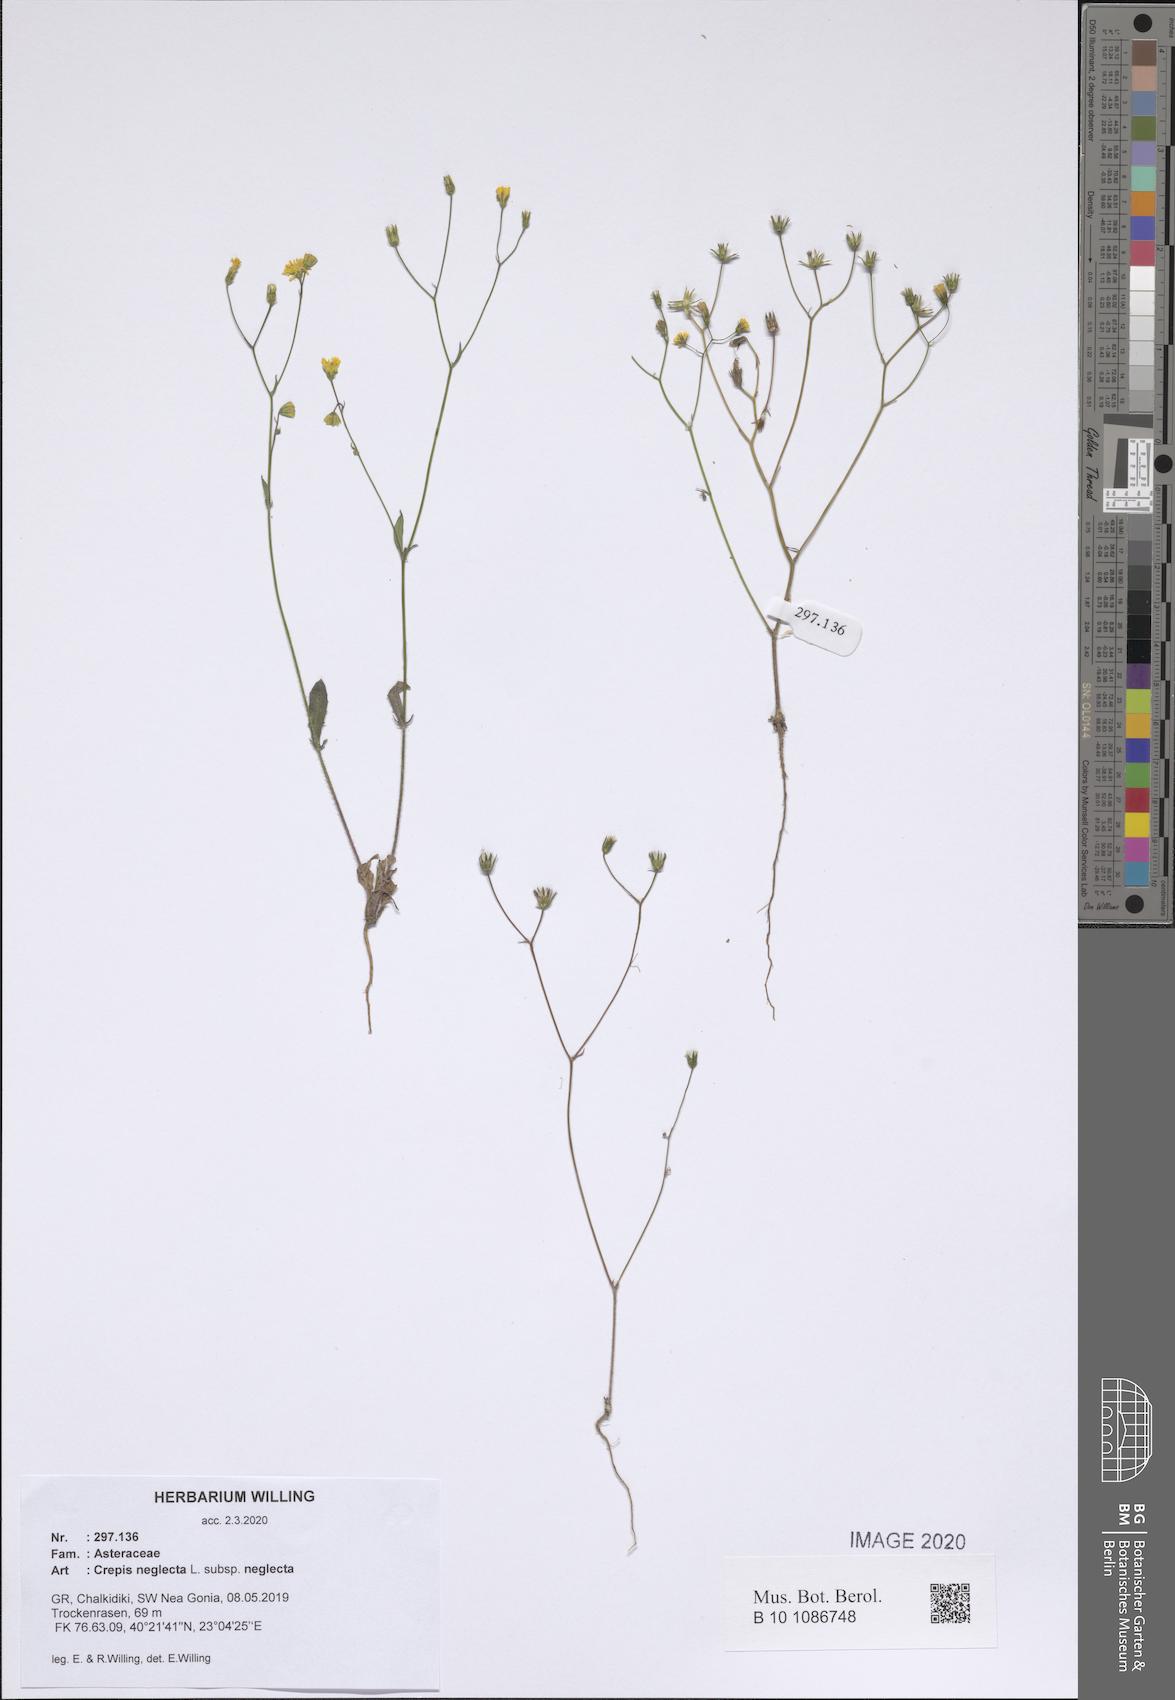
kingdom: Plantae
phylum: Tracheophyta
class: Magnoliopsida
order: Asterales
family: Asteraceae
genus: Crepis
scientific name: Crepis neglecta
